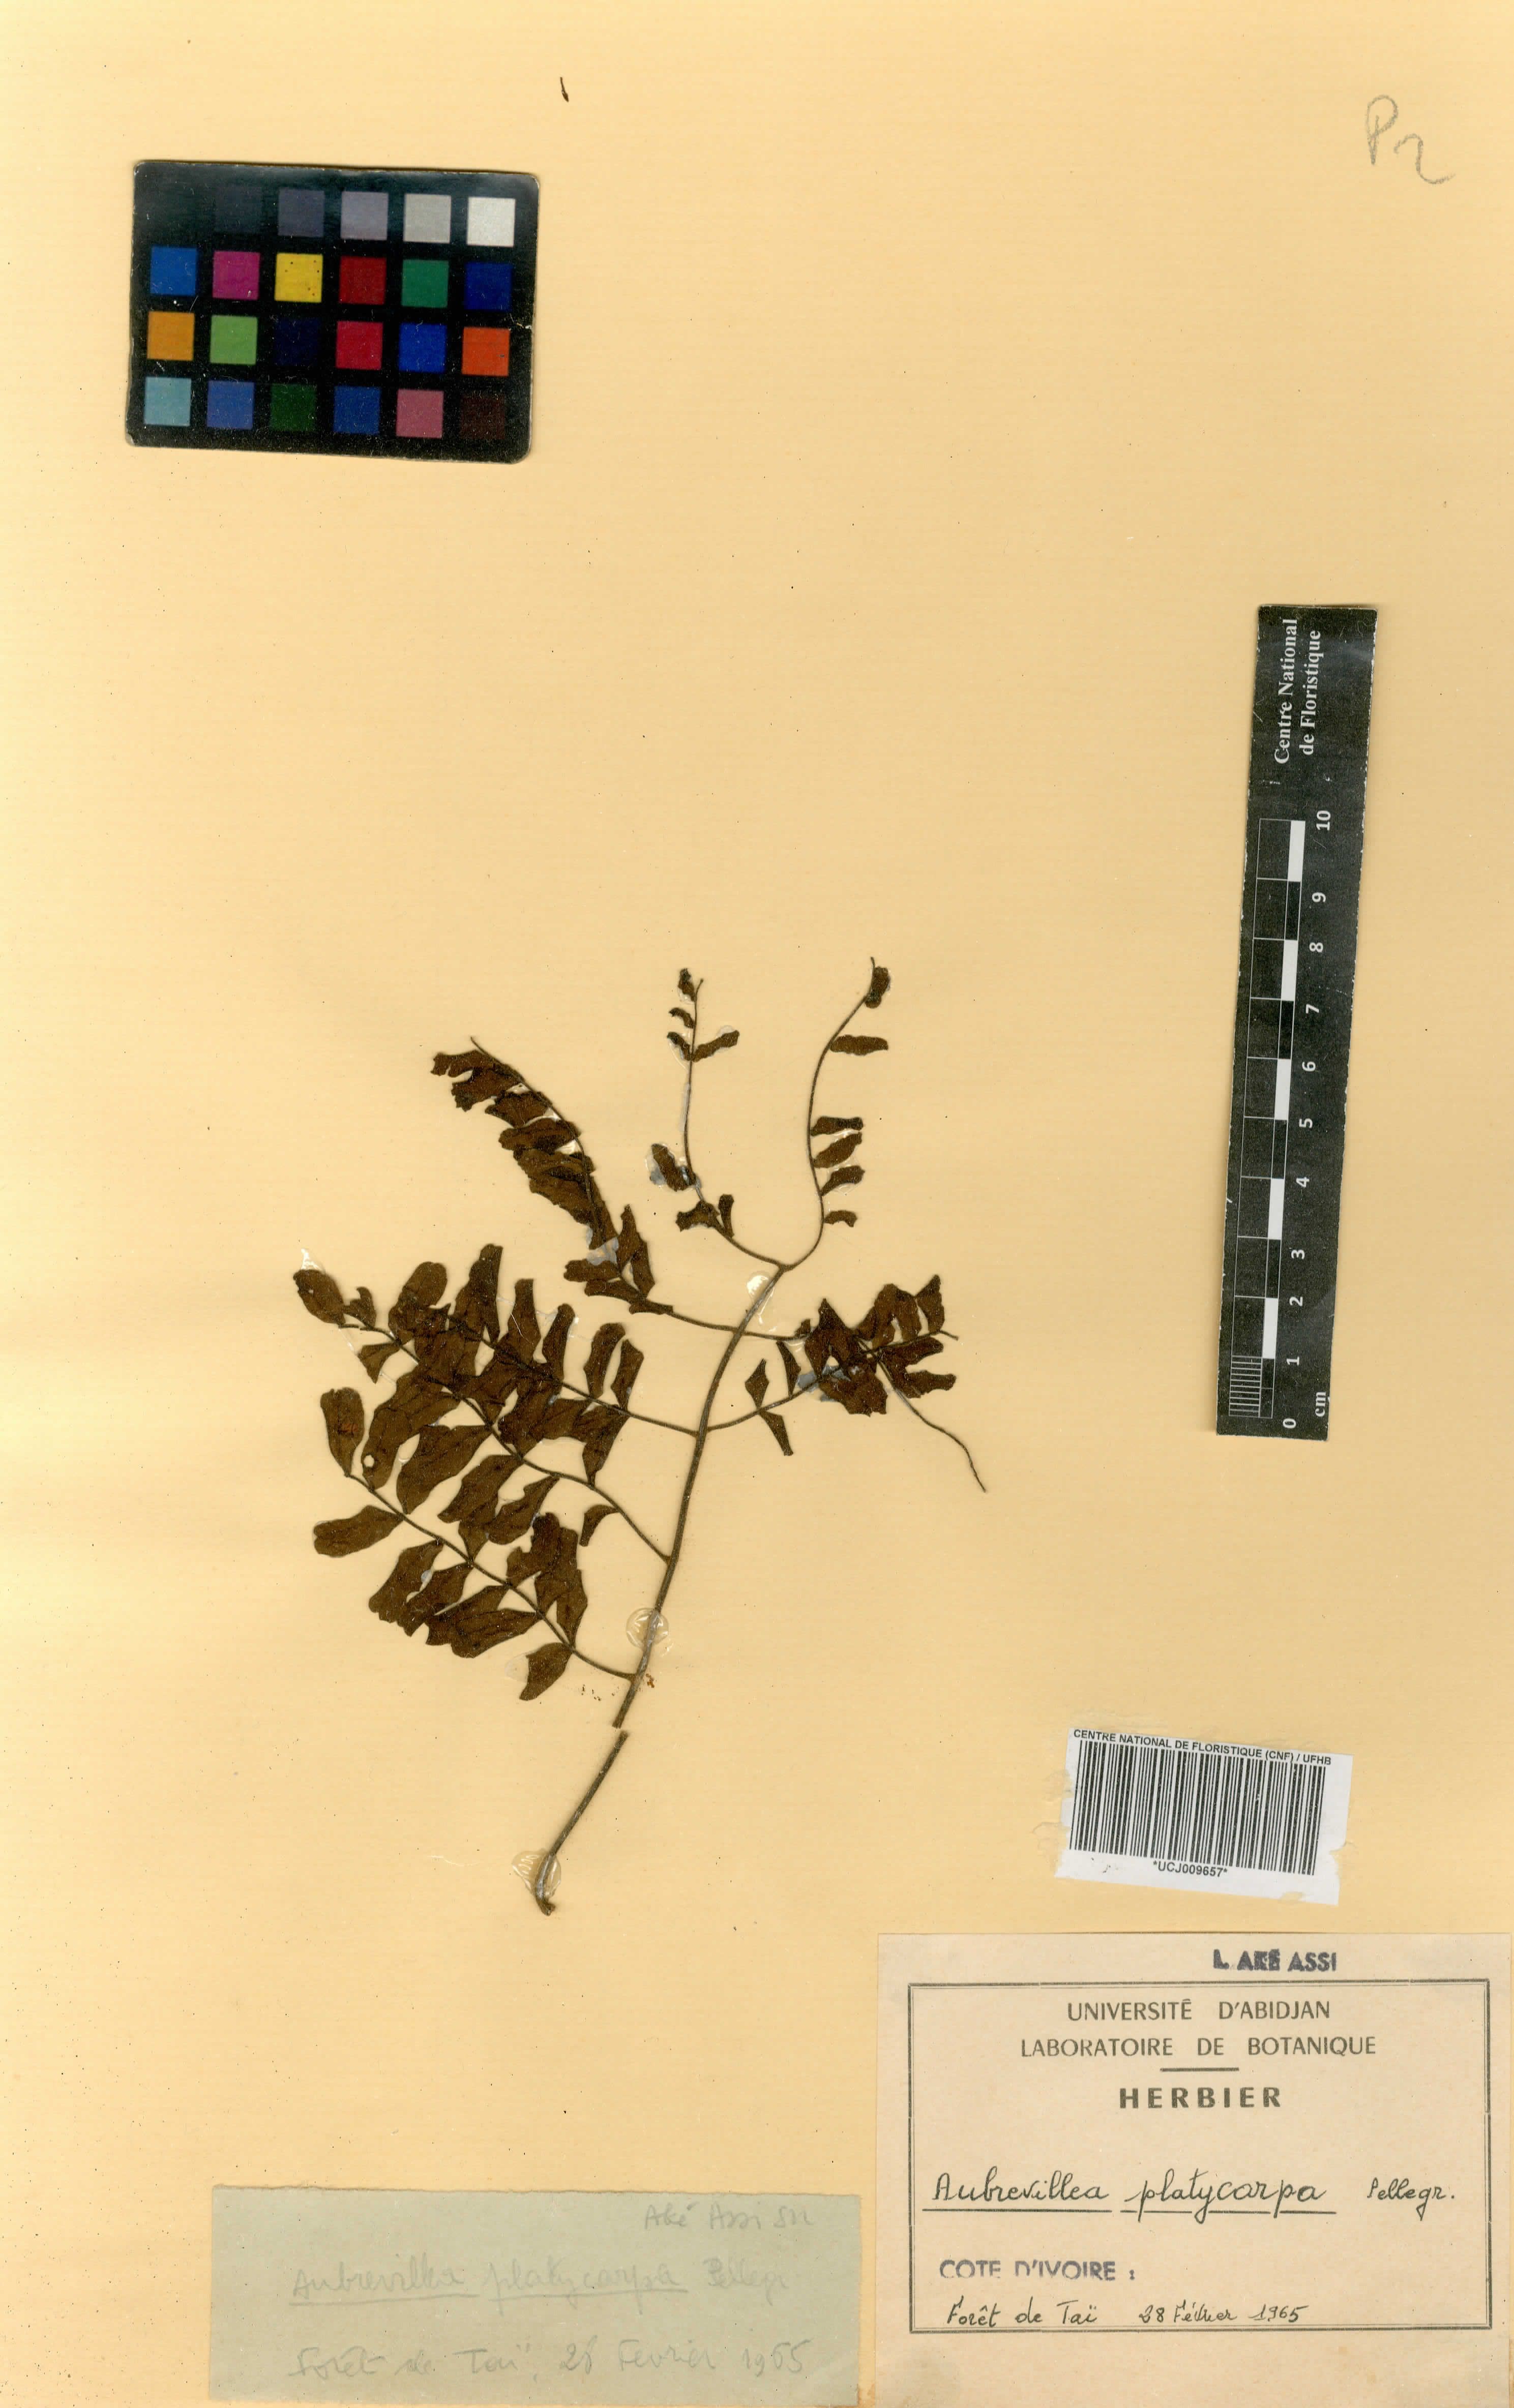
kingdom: Plantae
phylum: Tracheophyta
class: Magnoliopsida
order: Fabales
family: Fabaceae
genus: Aubrevillea
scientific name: Aubrevillea platicarpa
